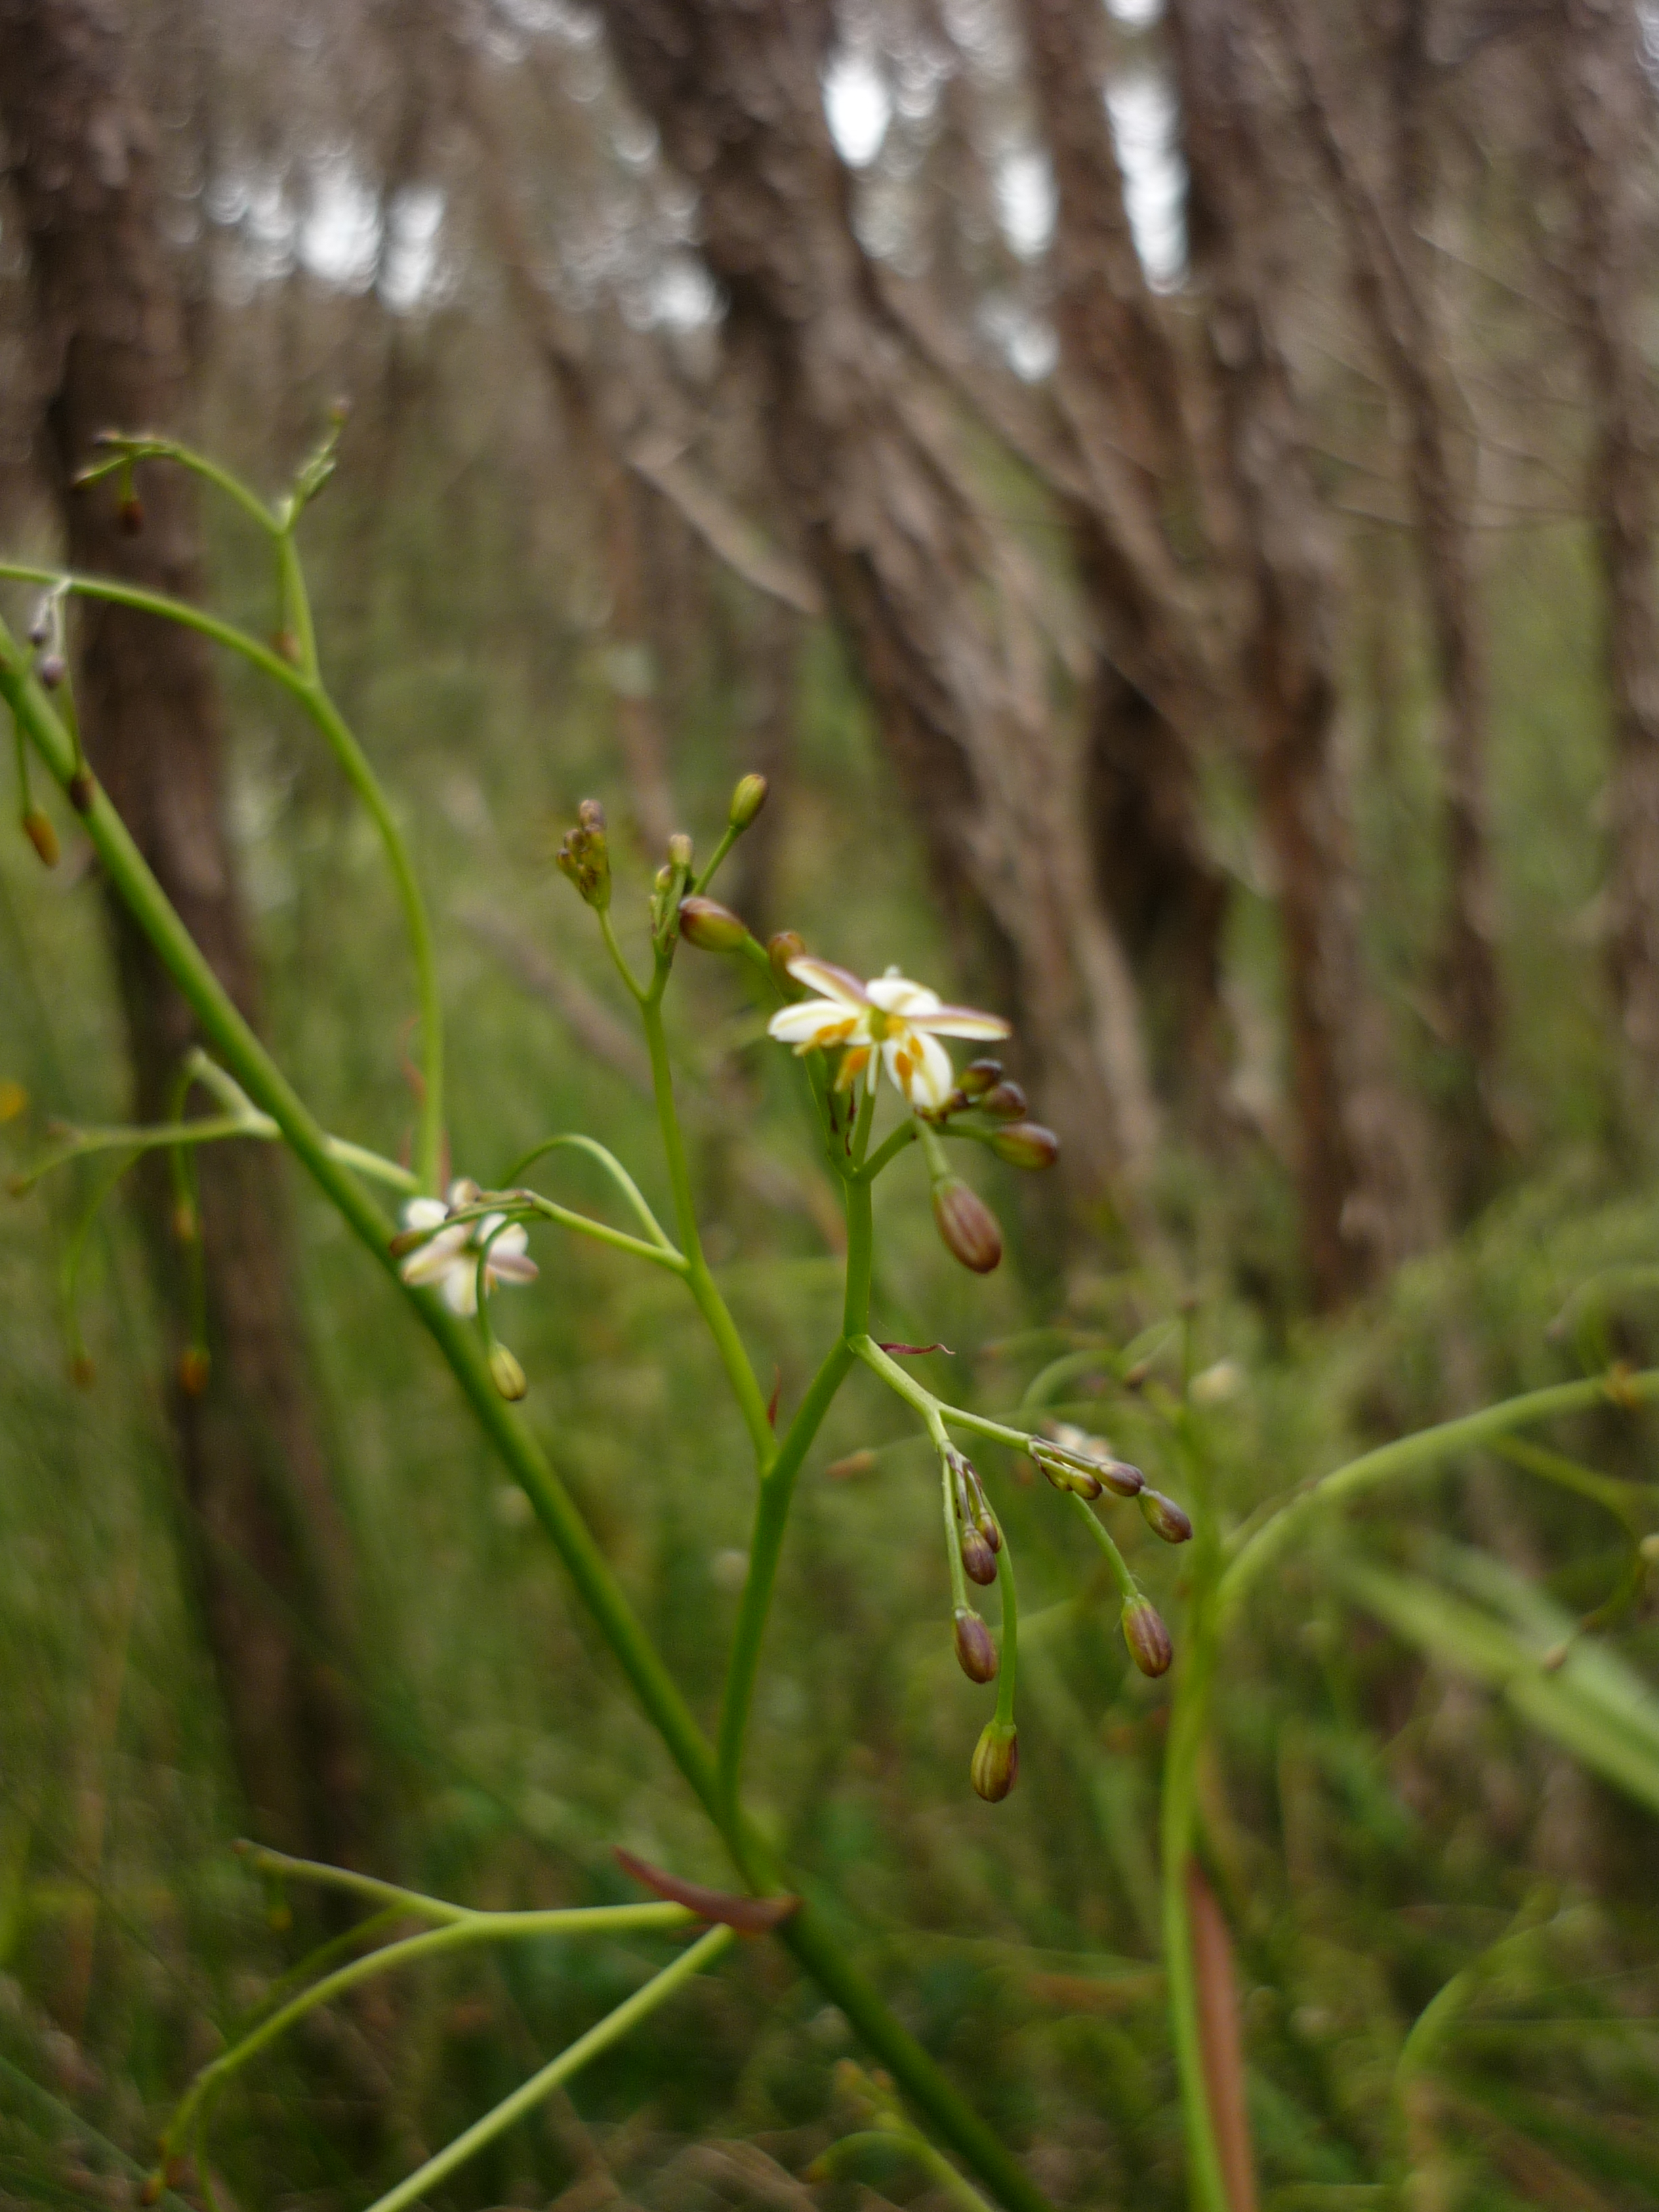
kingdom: Plantae
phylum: Tracheophyta
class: Liliopsida
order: Asparagales
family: Asphodelaceae
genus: Dianella
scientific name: Dianella haematica
